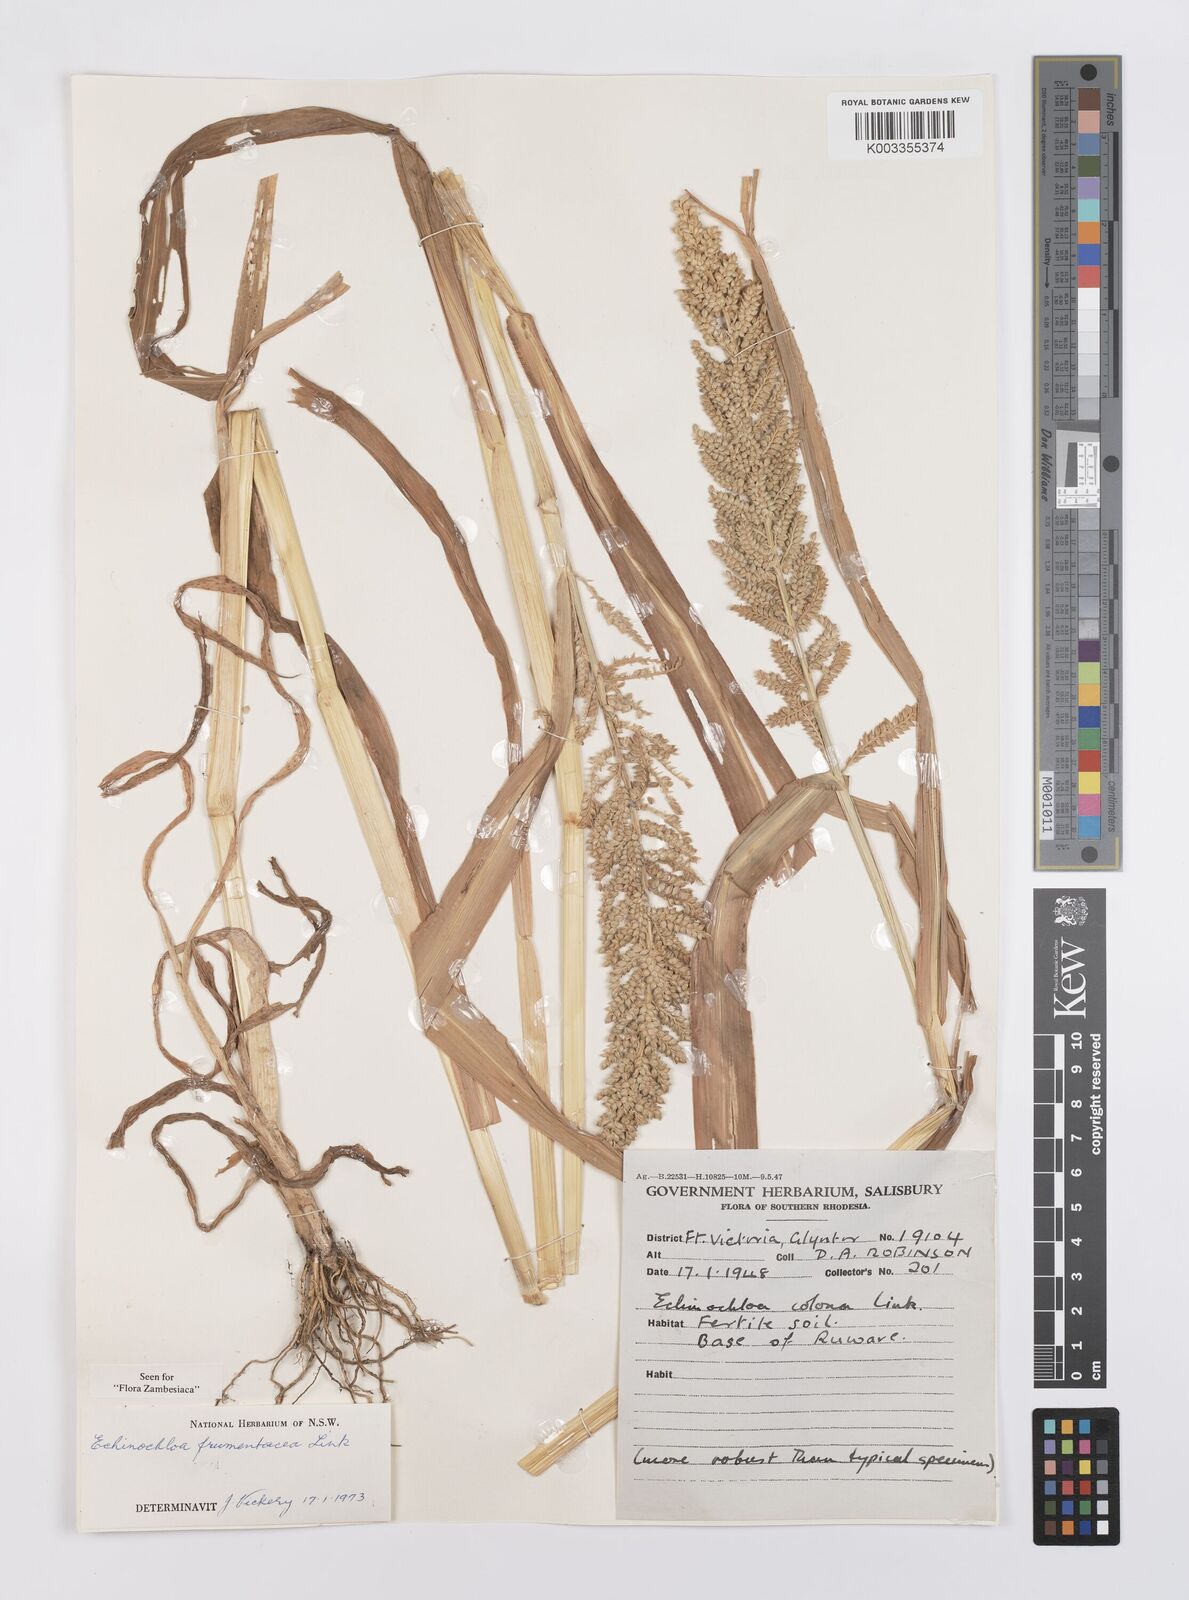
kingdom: Plantae
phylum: Tracheophyta
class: Liliopsida
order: Poales
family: Poaceae
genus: Echinochloa
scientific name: Echinochloa frumentacea
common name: Billion-dollar grass
